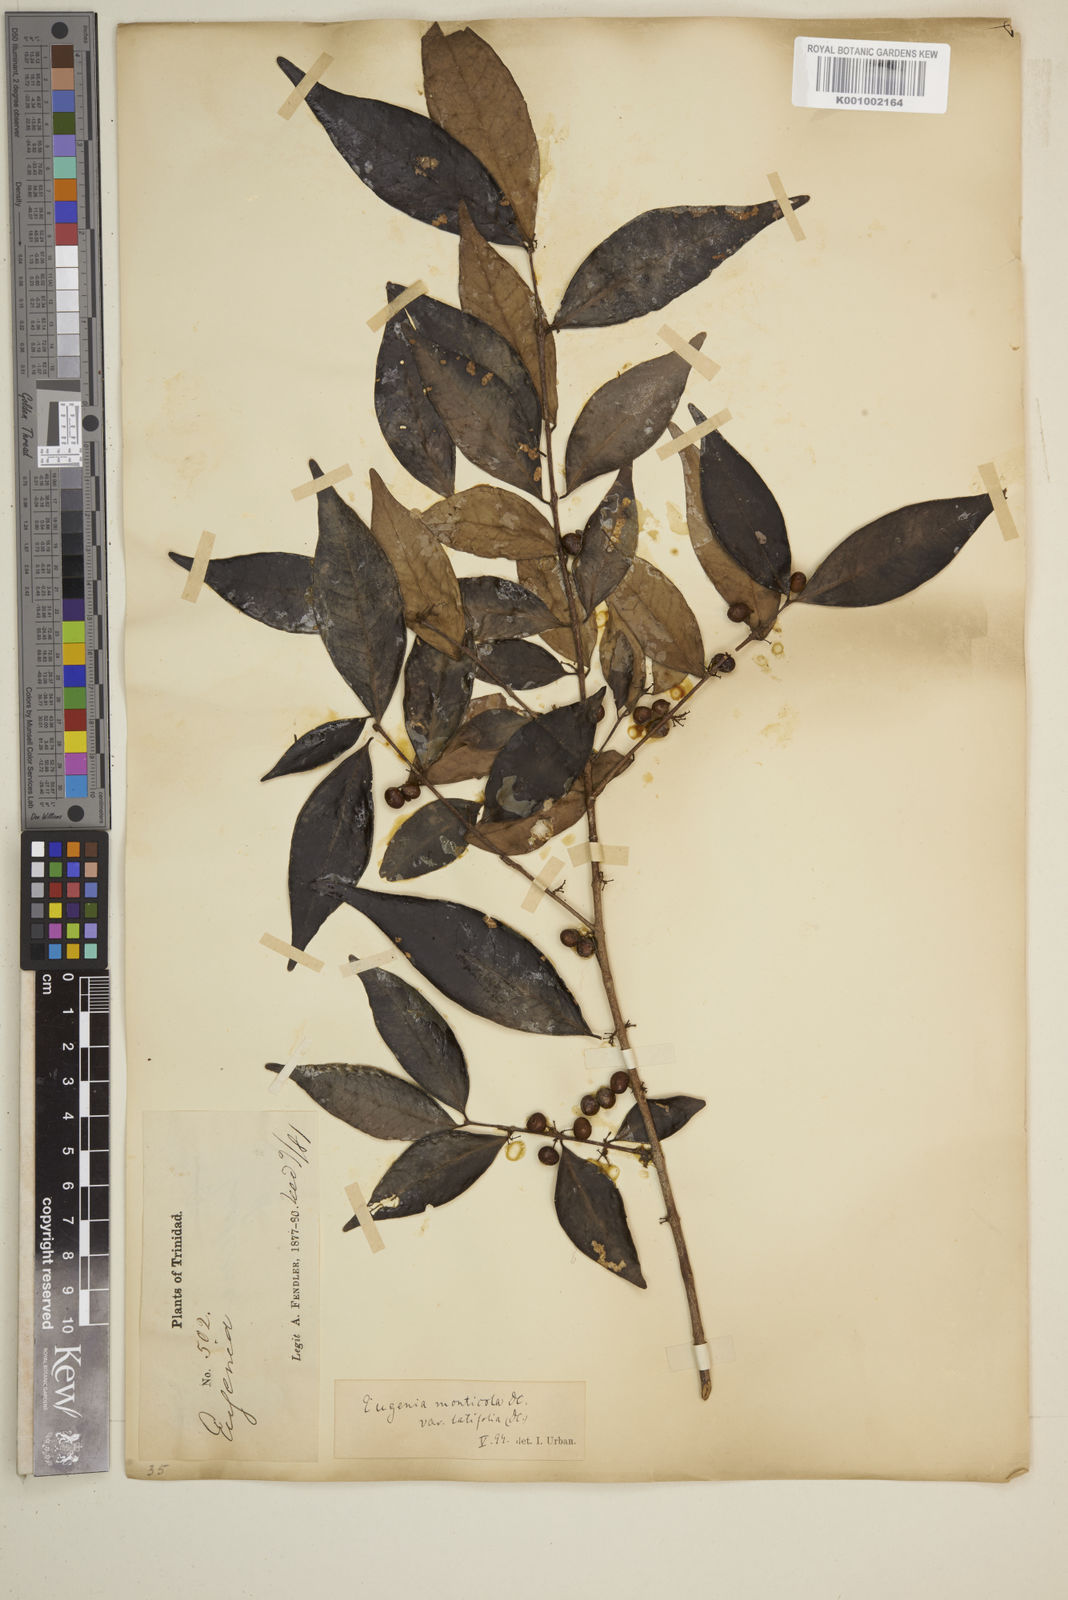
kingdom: Plantae
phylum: Tracheophyta
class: Magnoliopsida
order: Myrtales
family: Myrtaceae
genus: Eugenia
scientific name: Eugenia monticola
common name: Birds berry
